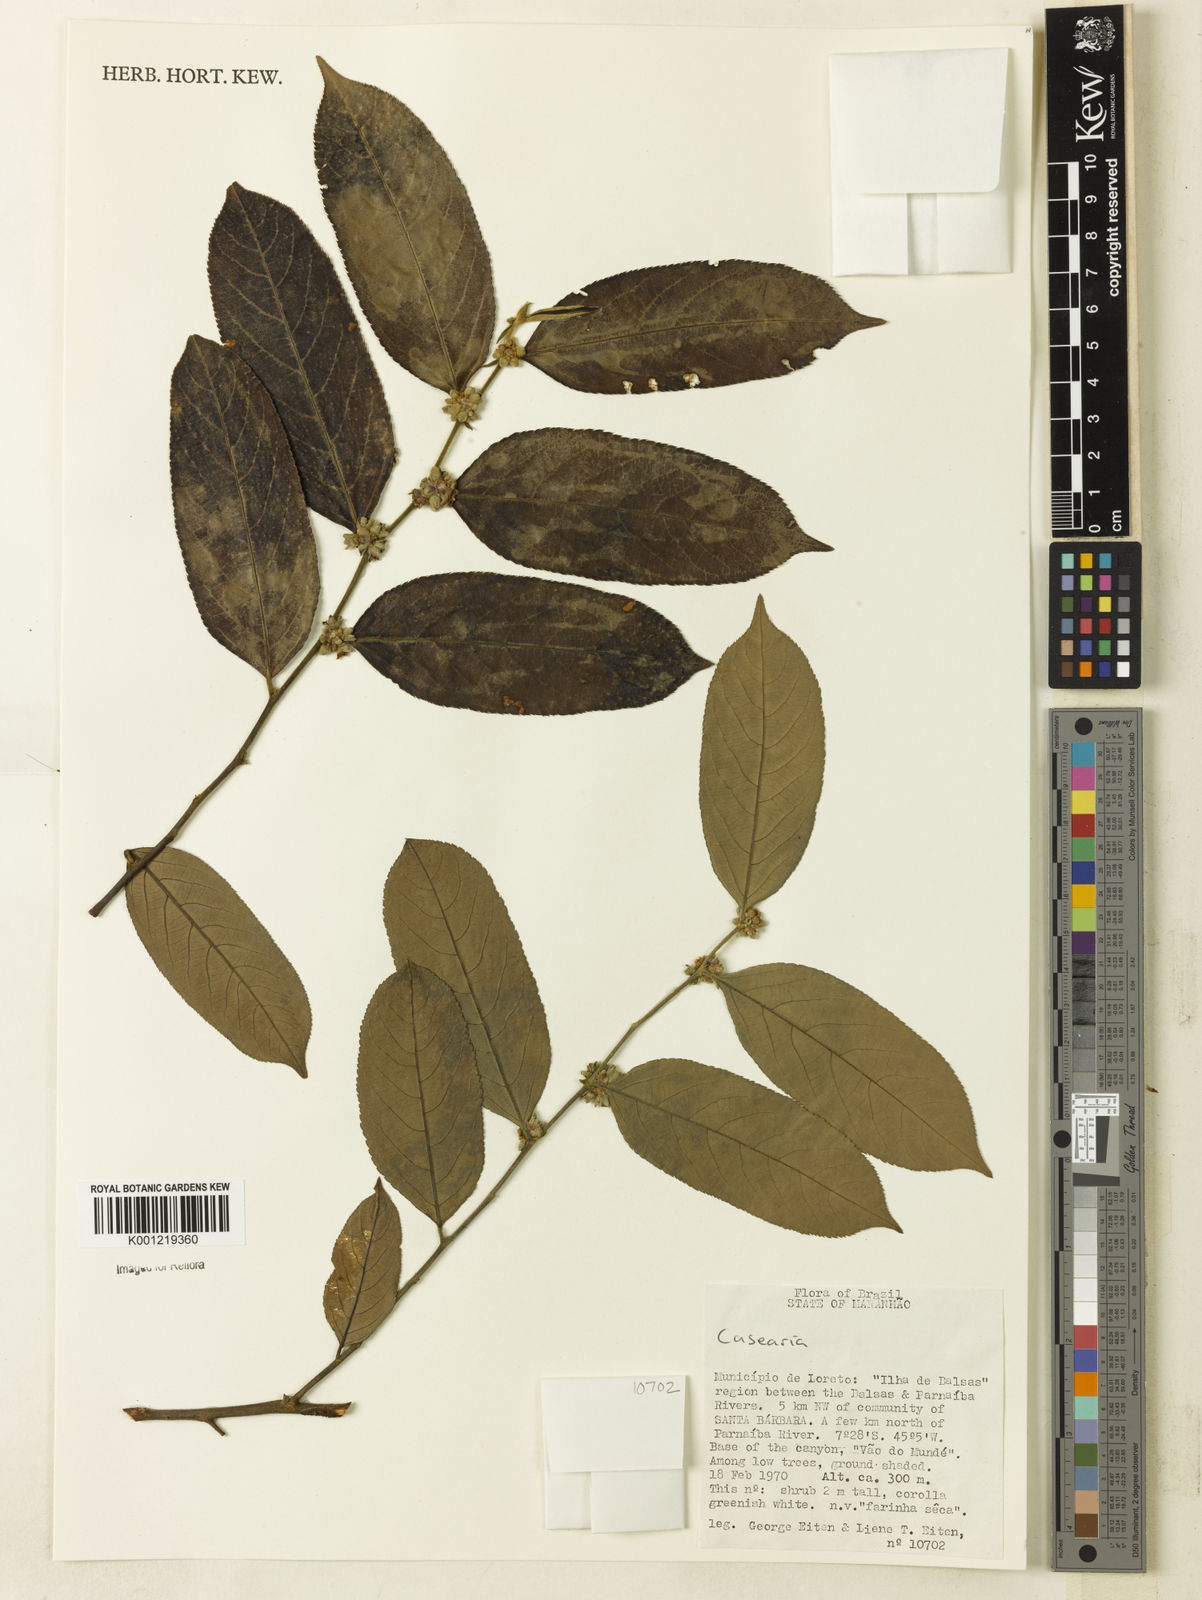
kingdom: Plantae
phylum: Tracheophyta
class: Magnoliopsida
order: Malpighiales
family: Salicaceae
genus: Casearia
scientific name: Casearia
